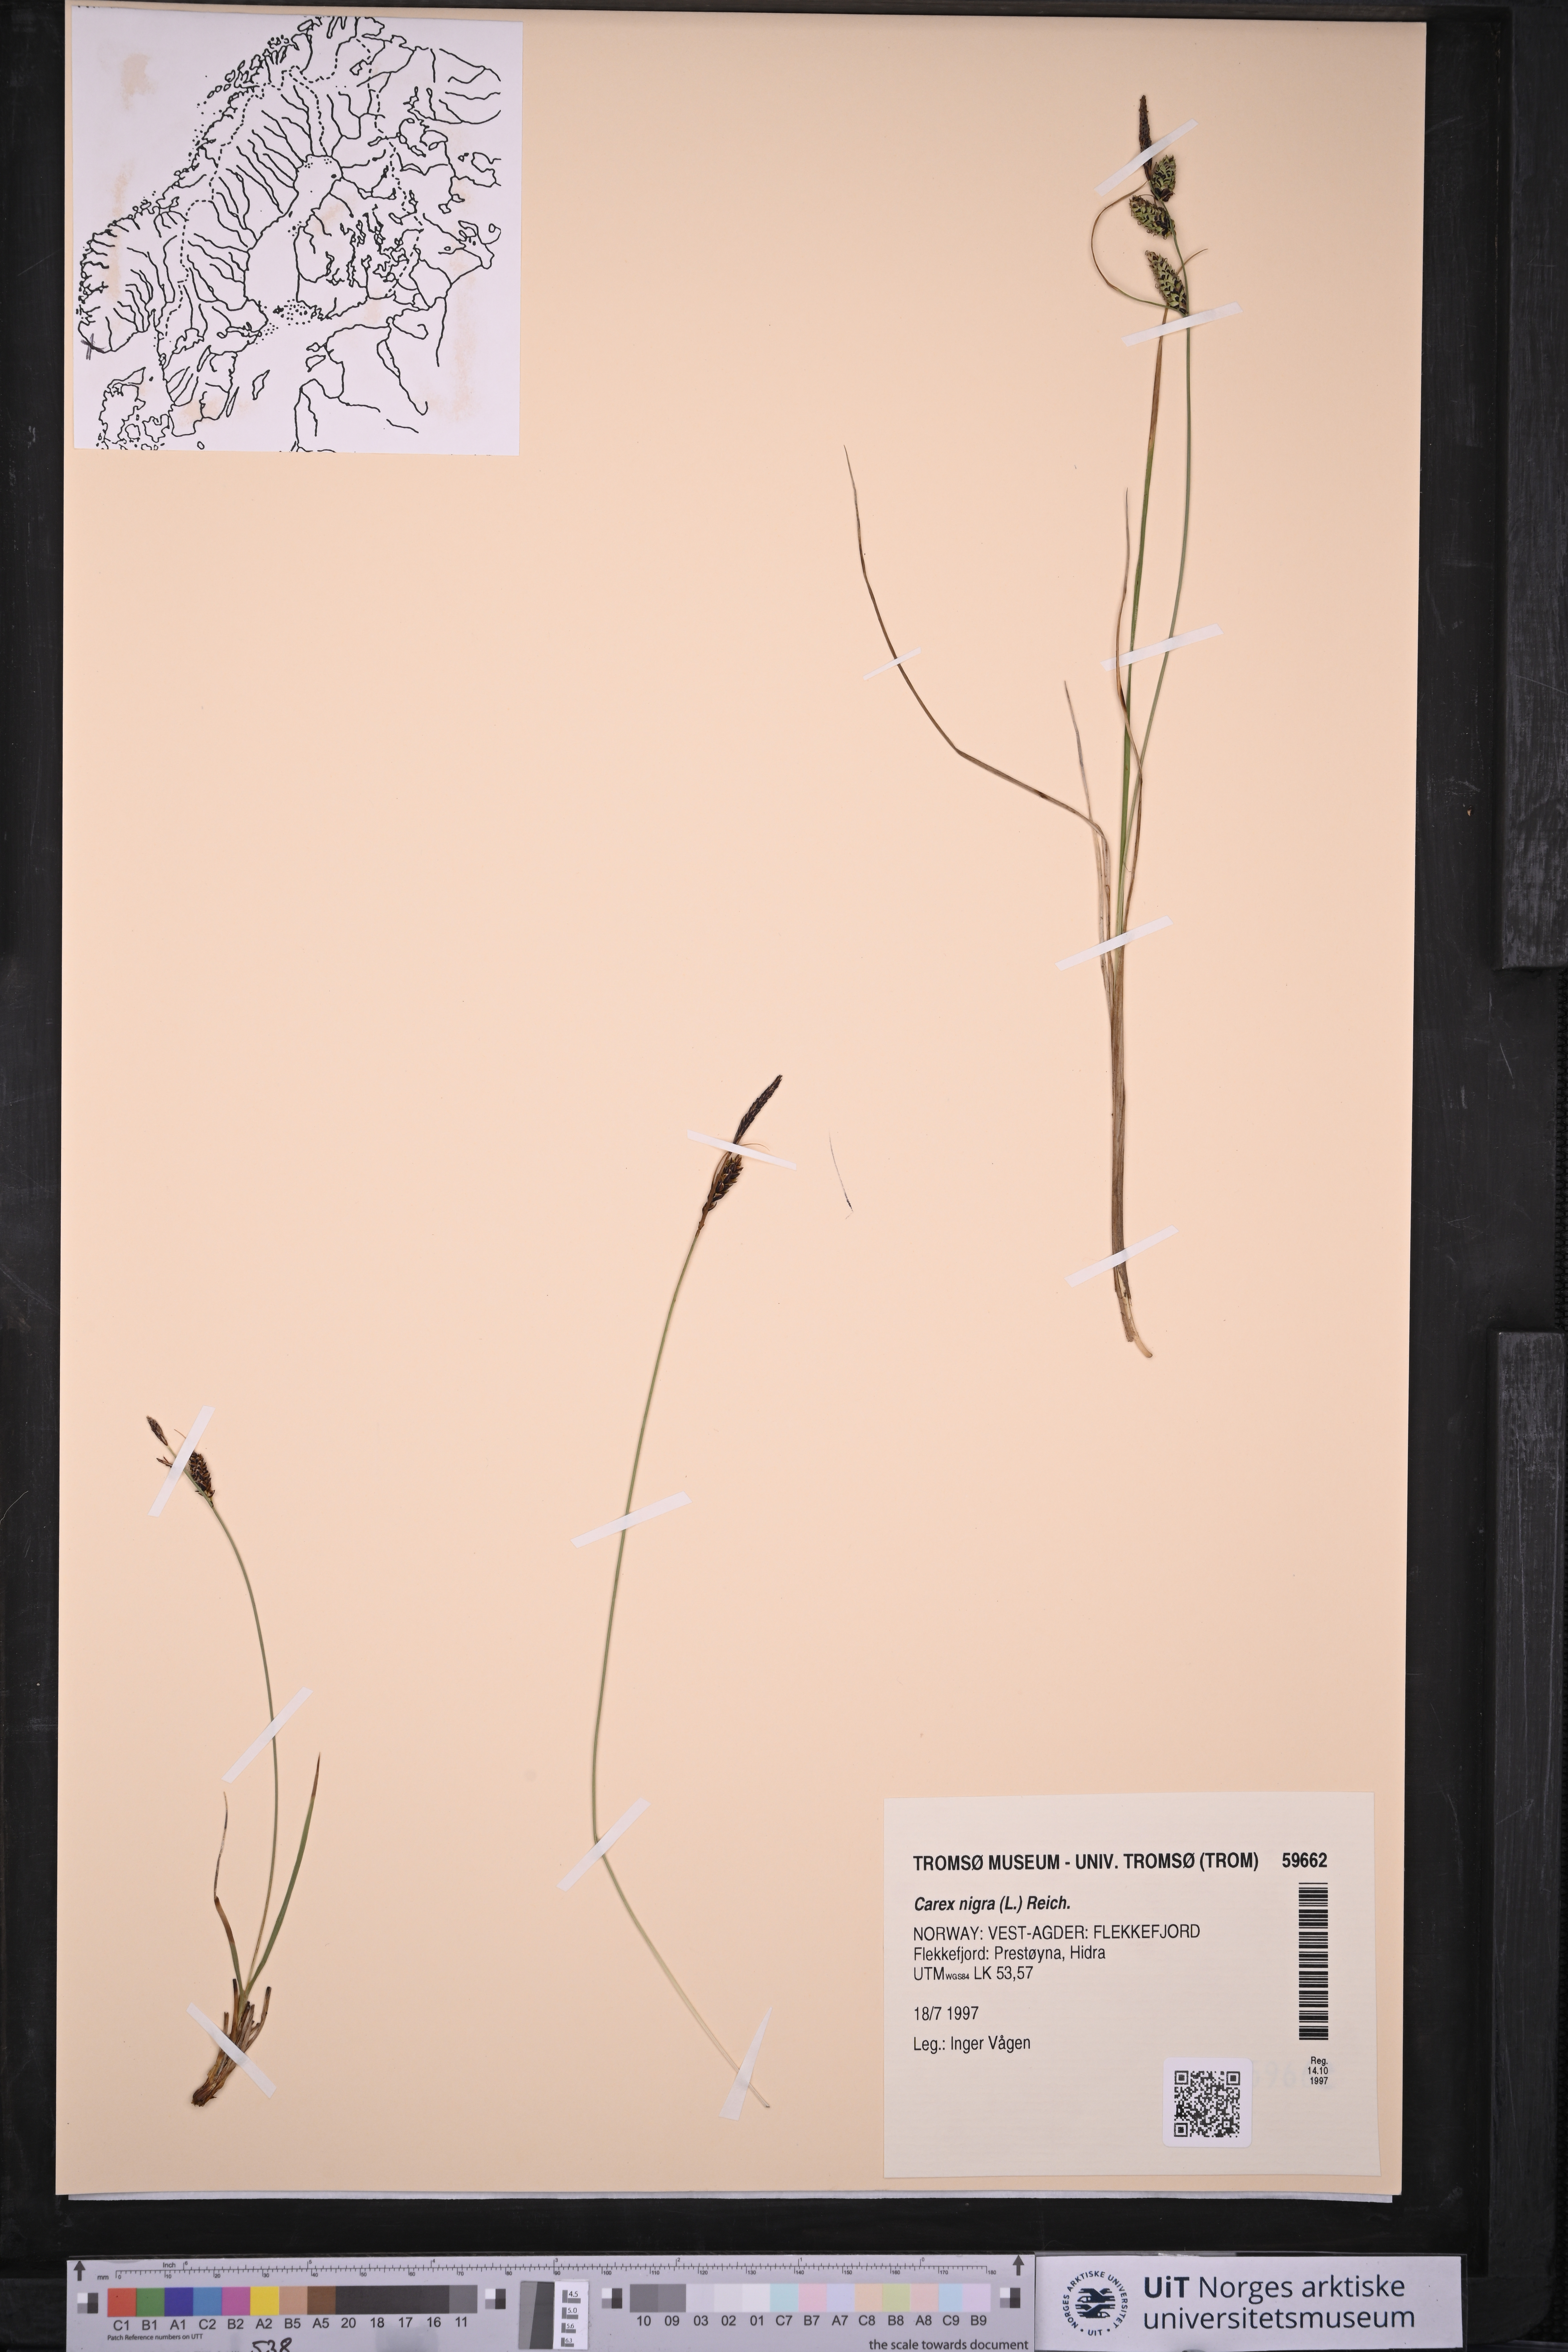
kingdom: Plantae
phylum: Tracheophyta
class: Liliopsida
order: Poales
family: Cyperaceae
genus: Carex
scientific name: Carex nigra
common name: Common sedge
